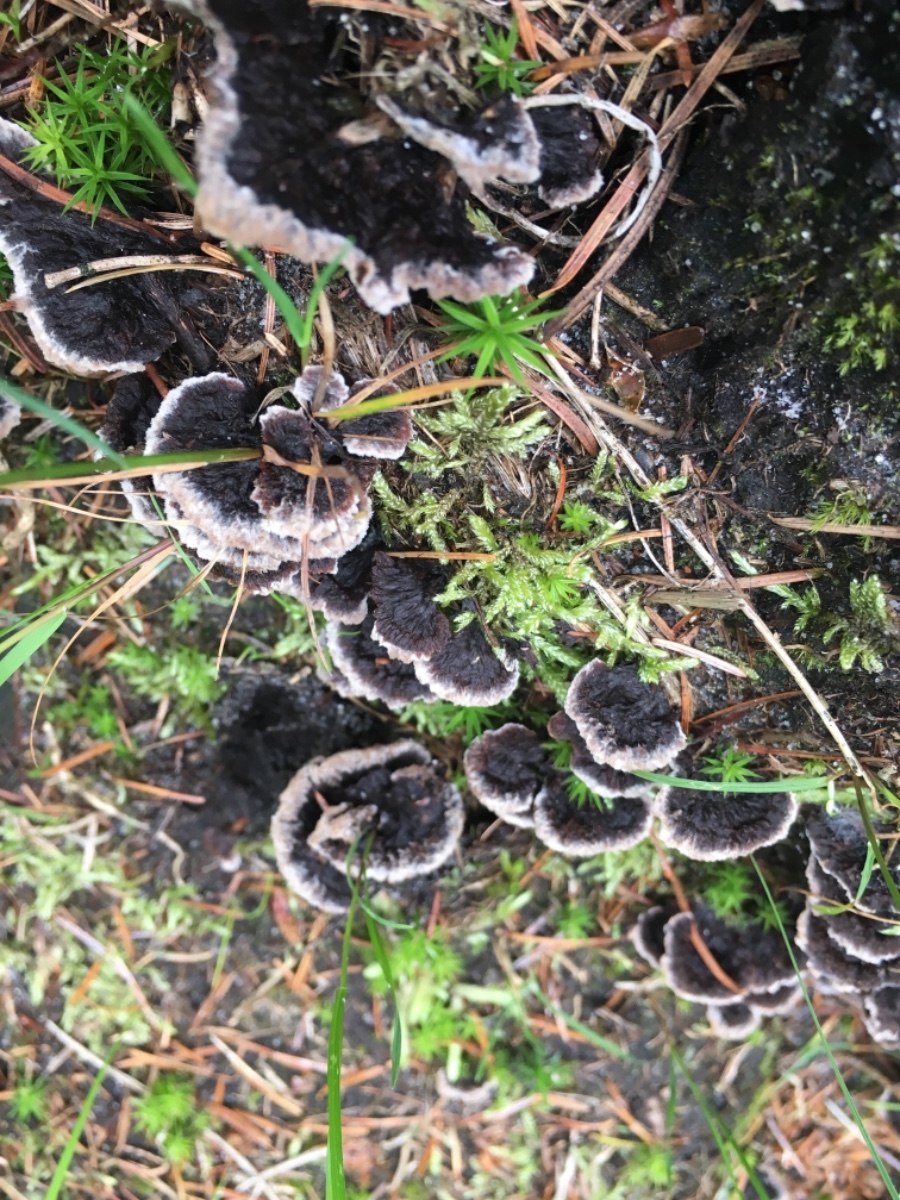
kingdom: Fungi
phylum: Basidiomycota
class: Agaricomycetes
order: Thelephorales
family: Thelephoraceae
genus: Thelephora
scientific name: Thelephora terrestris
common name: fliget frynsesvamp
